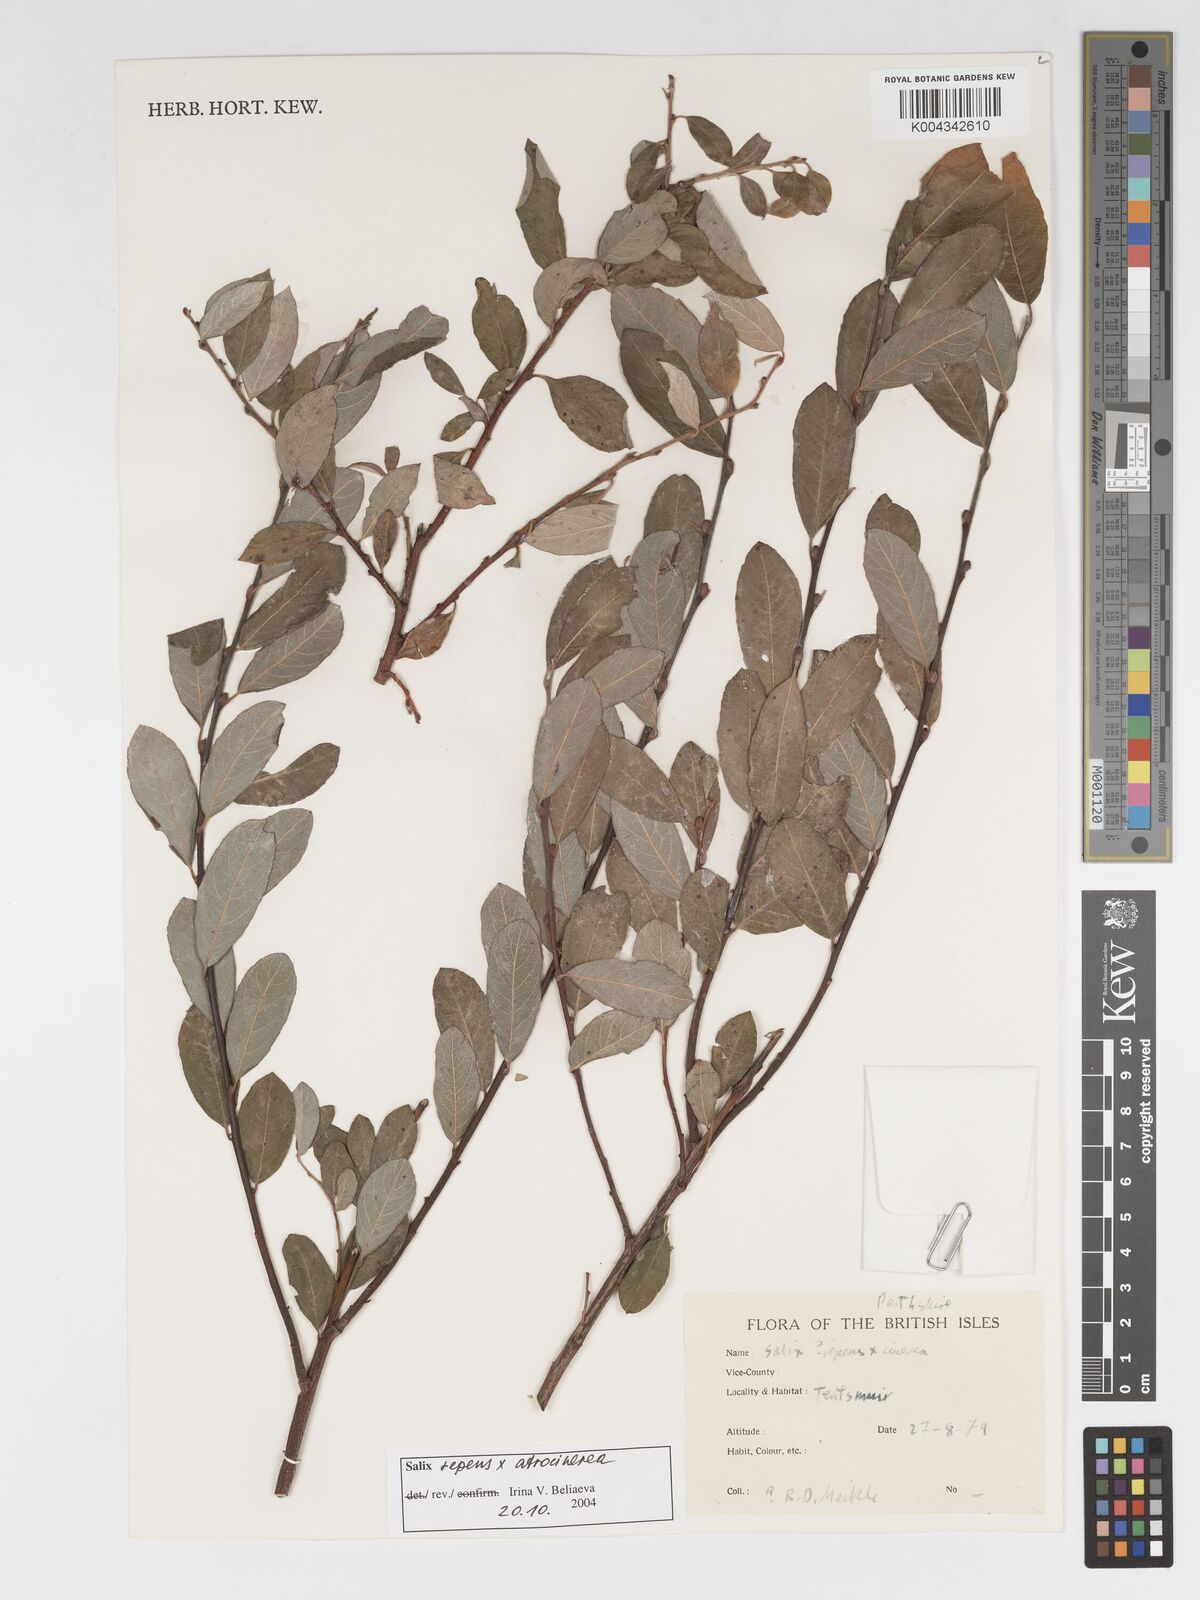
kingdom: Plantae
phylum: Tracheophyta
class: Magnoliopsida
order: Malpighiales
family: Salicaceae
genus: Salix
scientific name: Salix repens
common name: Creeping willow
